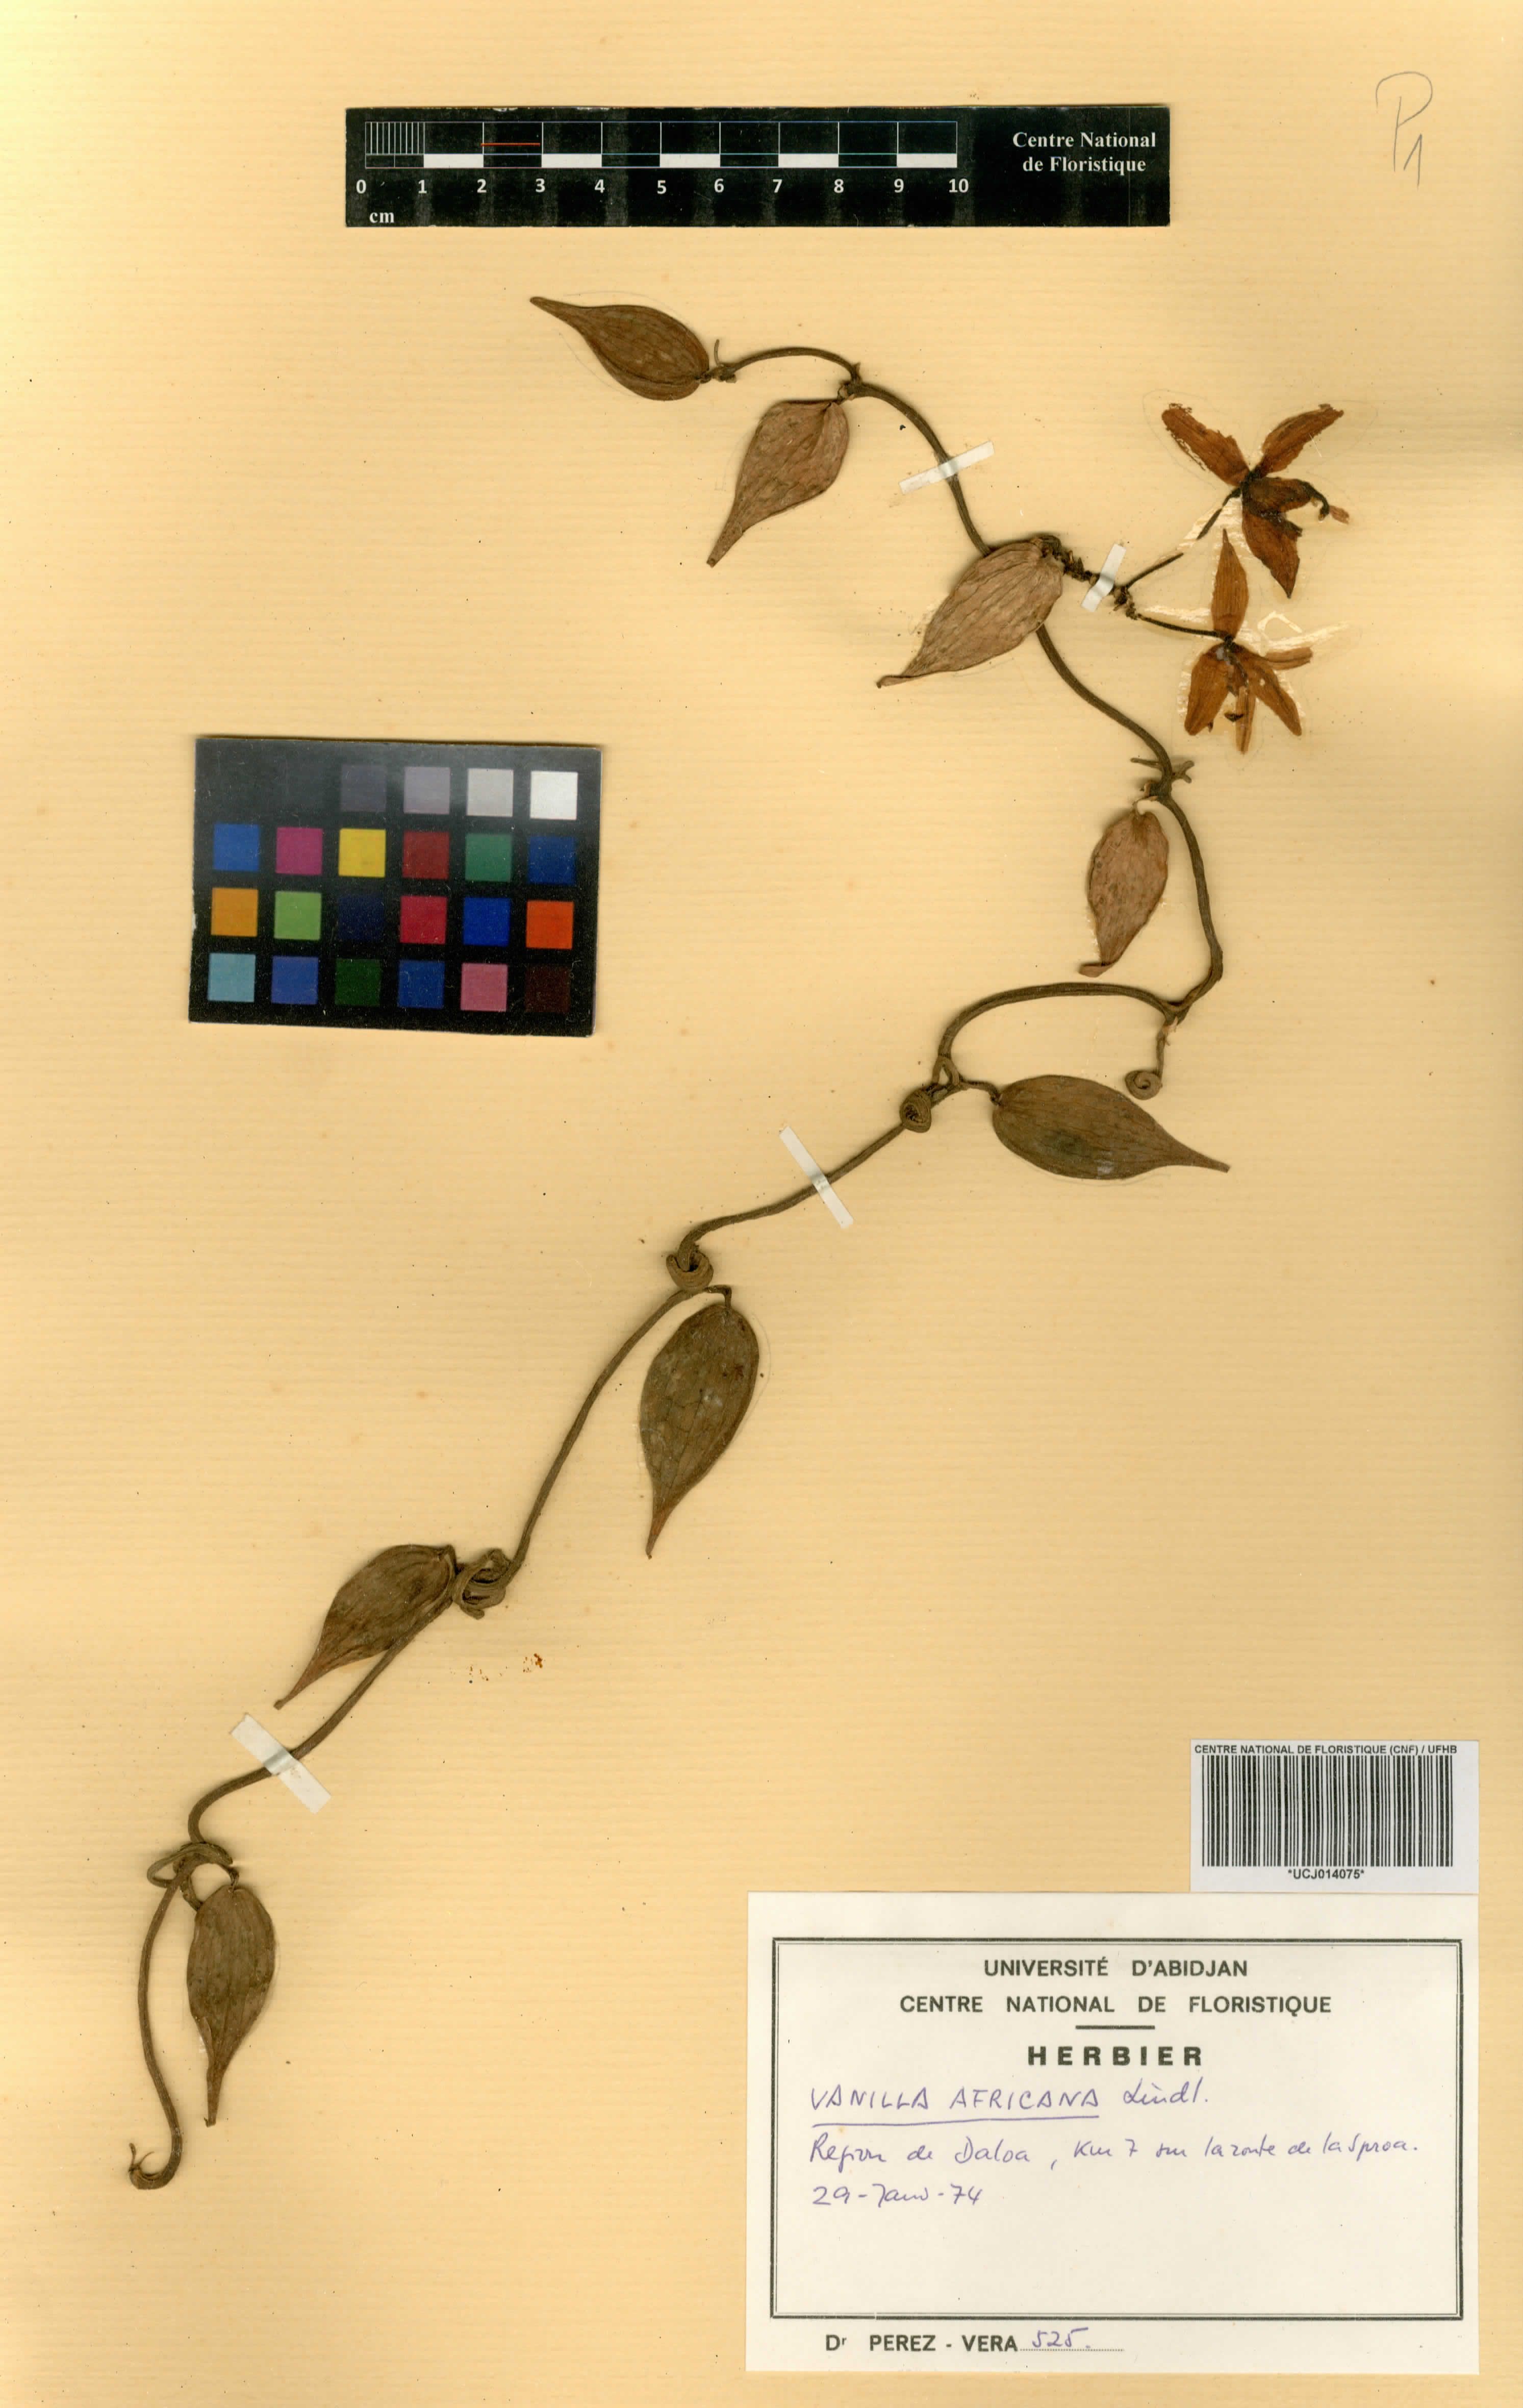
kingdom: Plantae
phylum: Tracheophyta
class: Liliopsida
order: Asparagales
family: Orchidaceae
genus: Vanilla
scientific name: Vanilla africana
